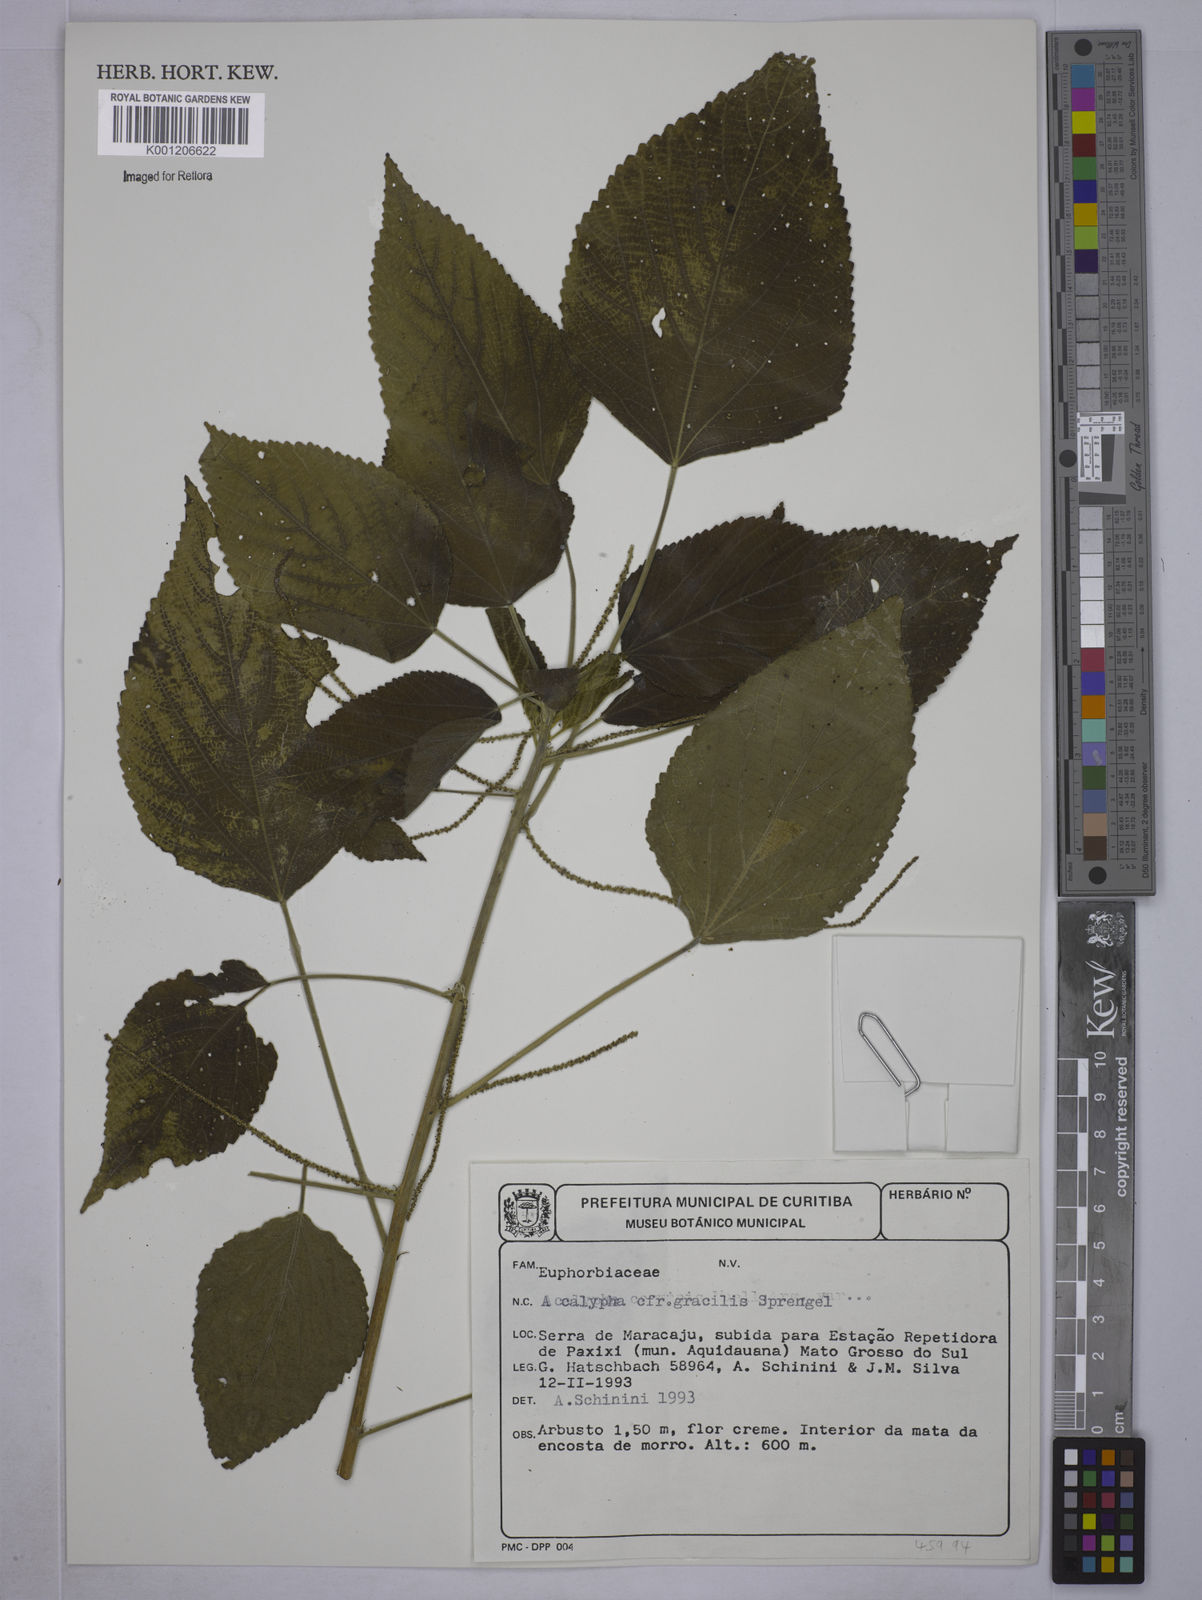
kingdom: Plantae
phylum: Tracheophyta
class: Magnoliopsida
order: Malpighiales
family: Euphorbiaceae
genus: Acalypha
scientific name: Acalypha gracilis
